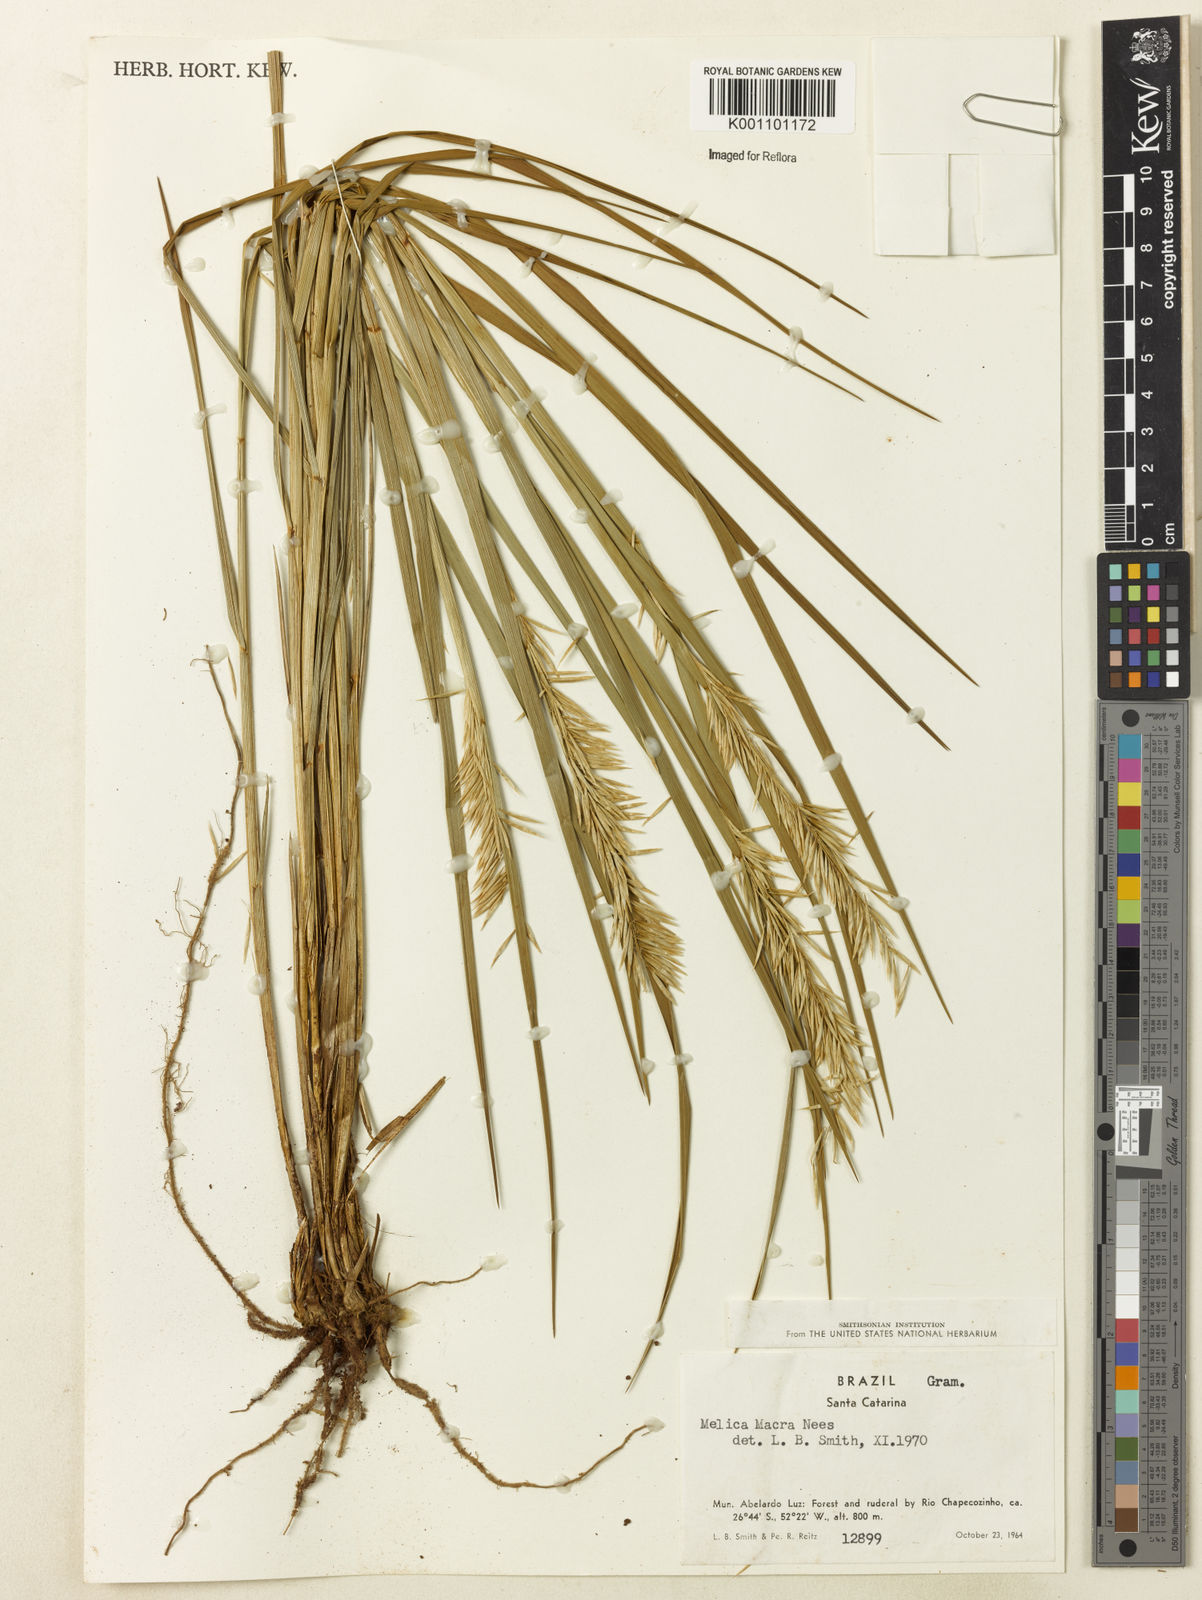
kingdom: Plantae
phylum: Tracheophyta
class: Liliopsida
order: Poales
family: Poaceae
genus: Melica
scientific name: Melica macra
